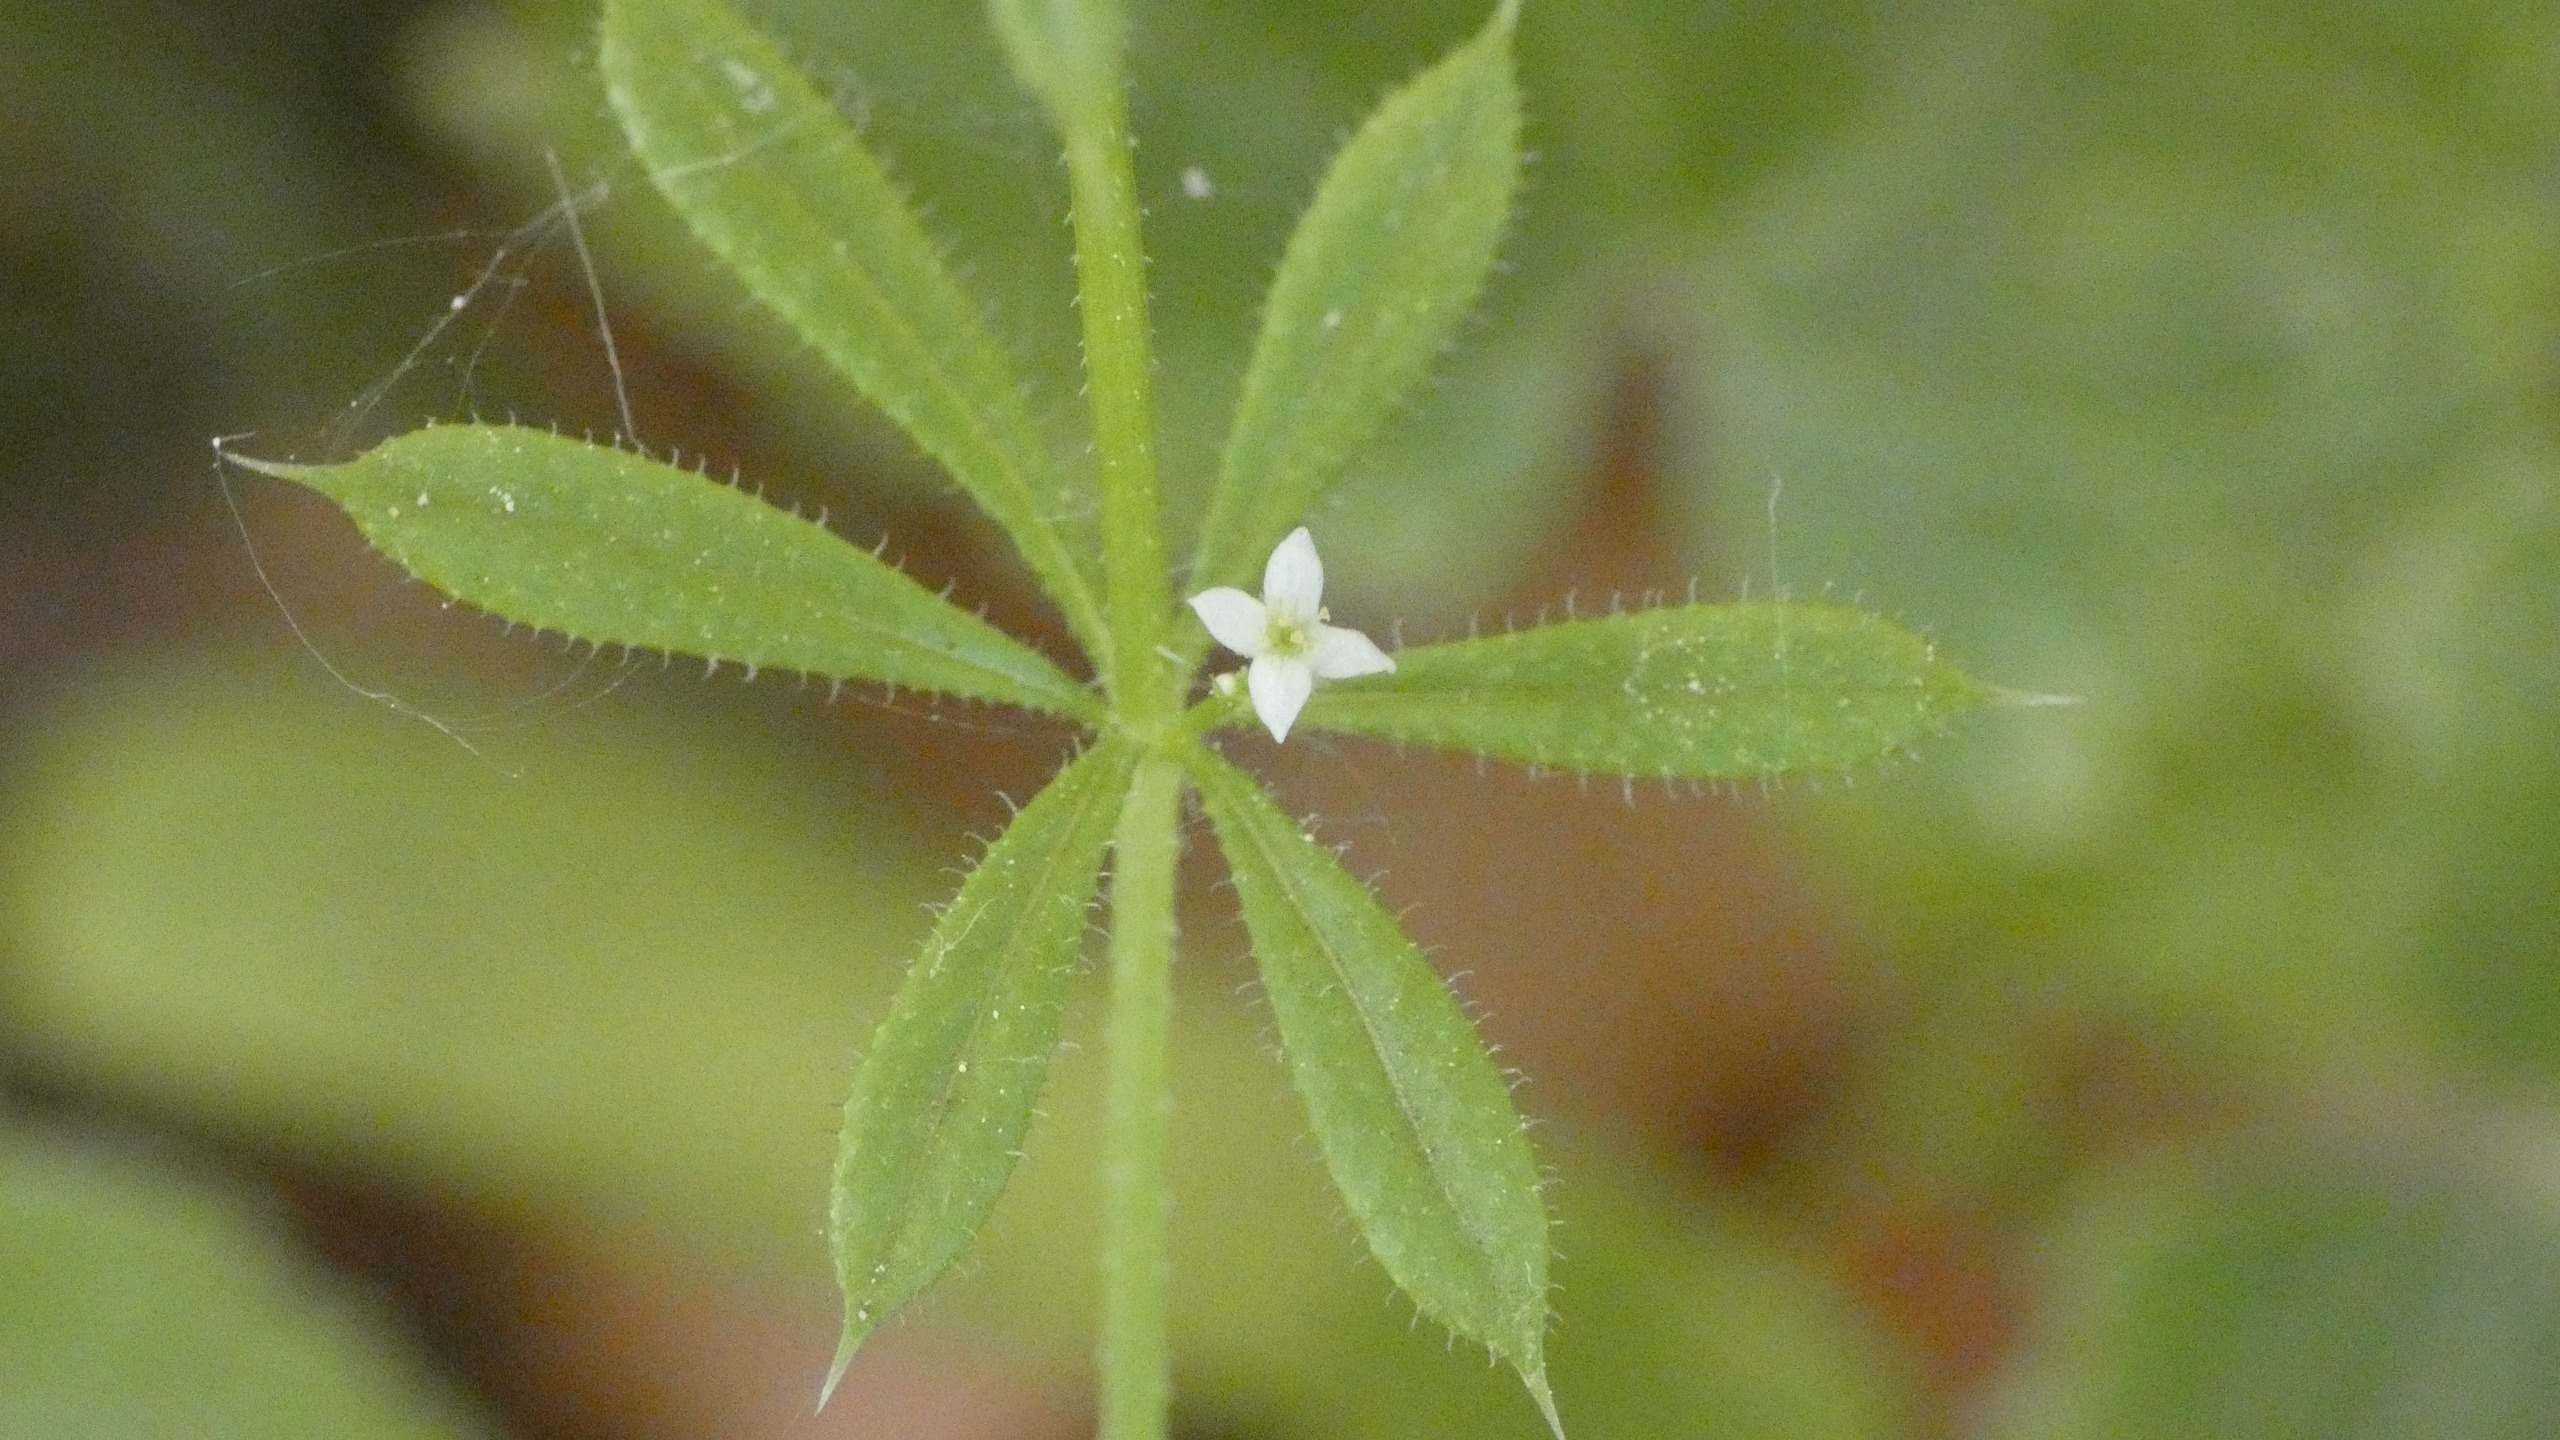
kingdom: Plantae
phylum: Tracheophyta
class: Magnoliopsida
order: Gentianales
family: Rubiaceae
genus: Galium
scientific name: Galium aparine
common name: Burre-snerre
